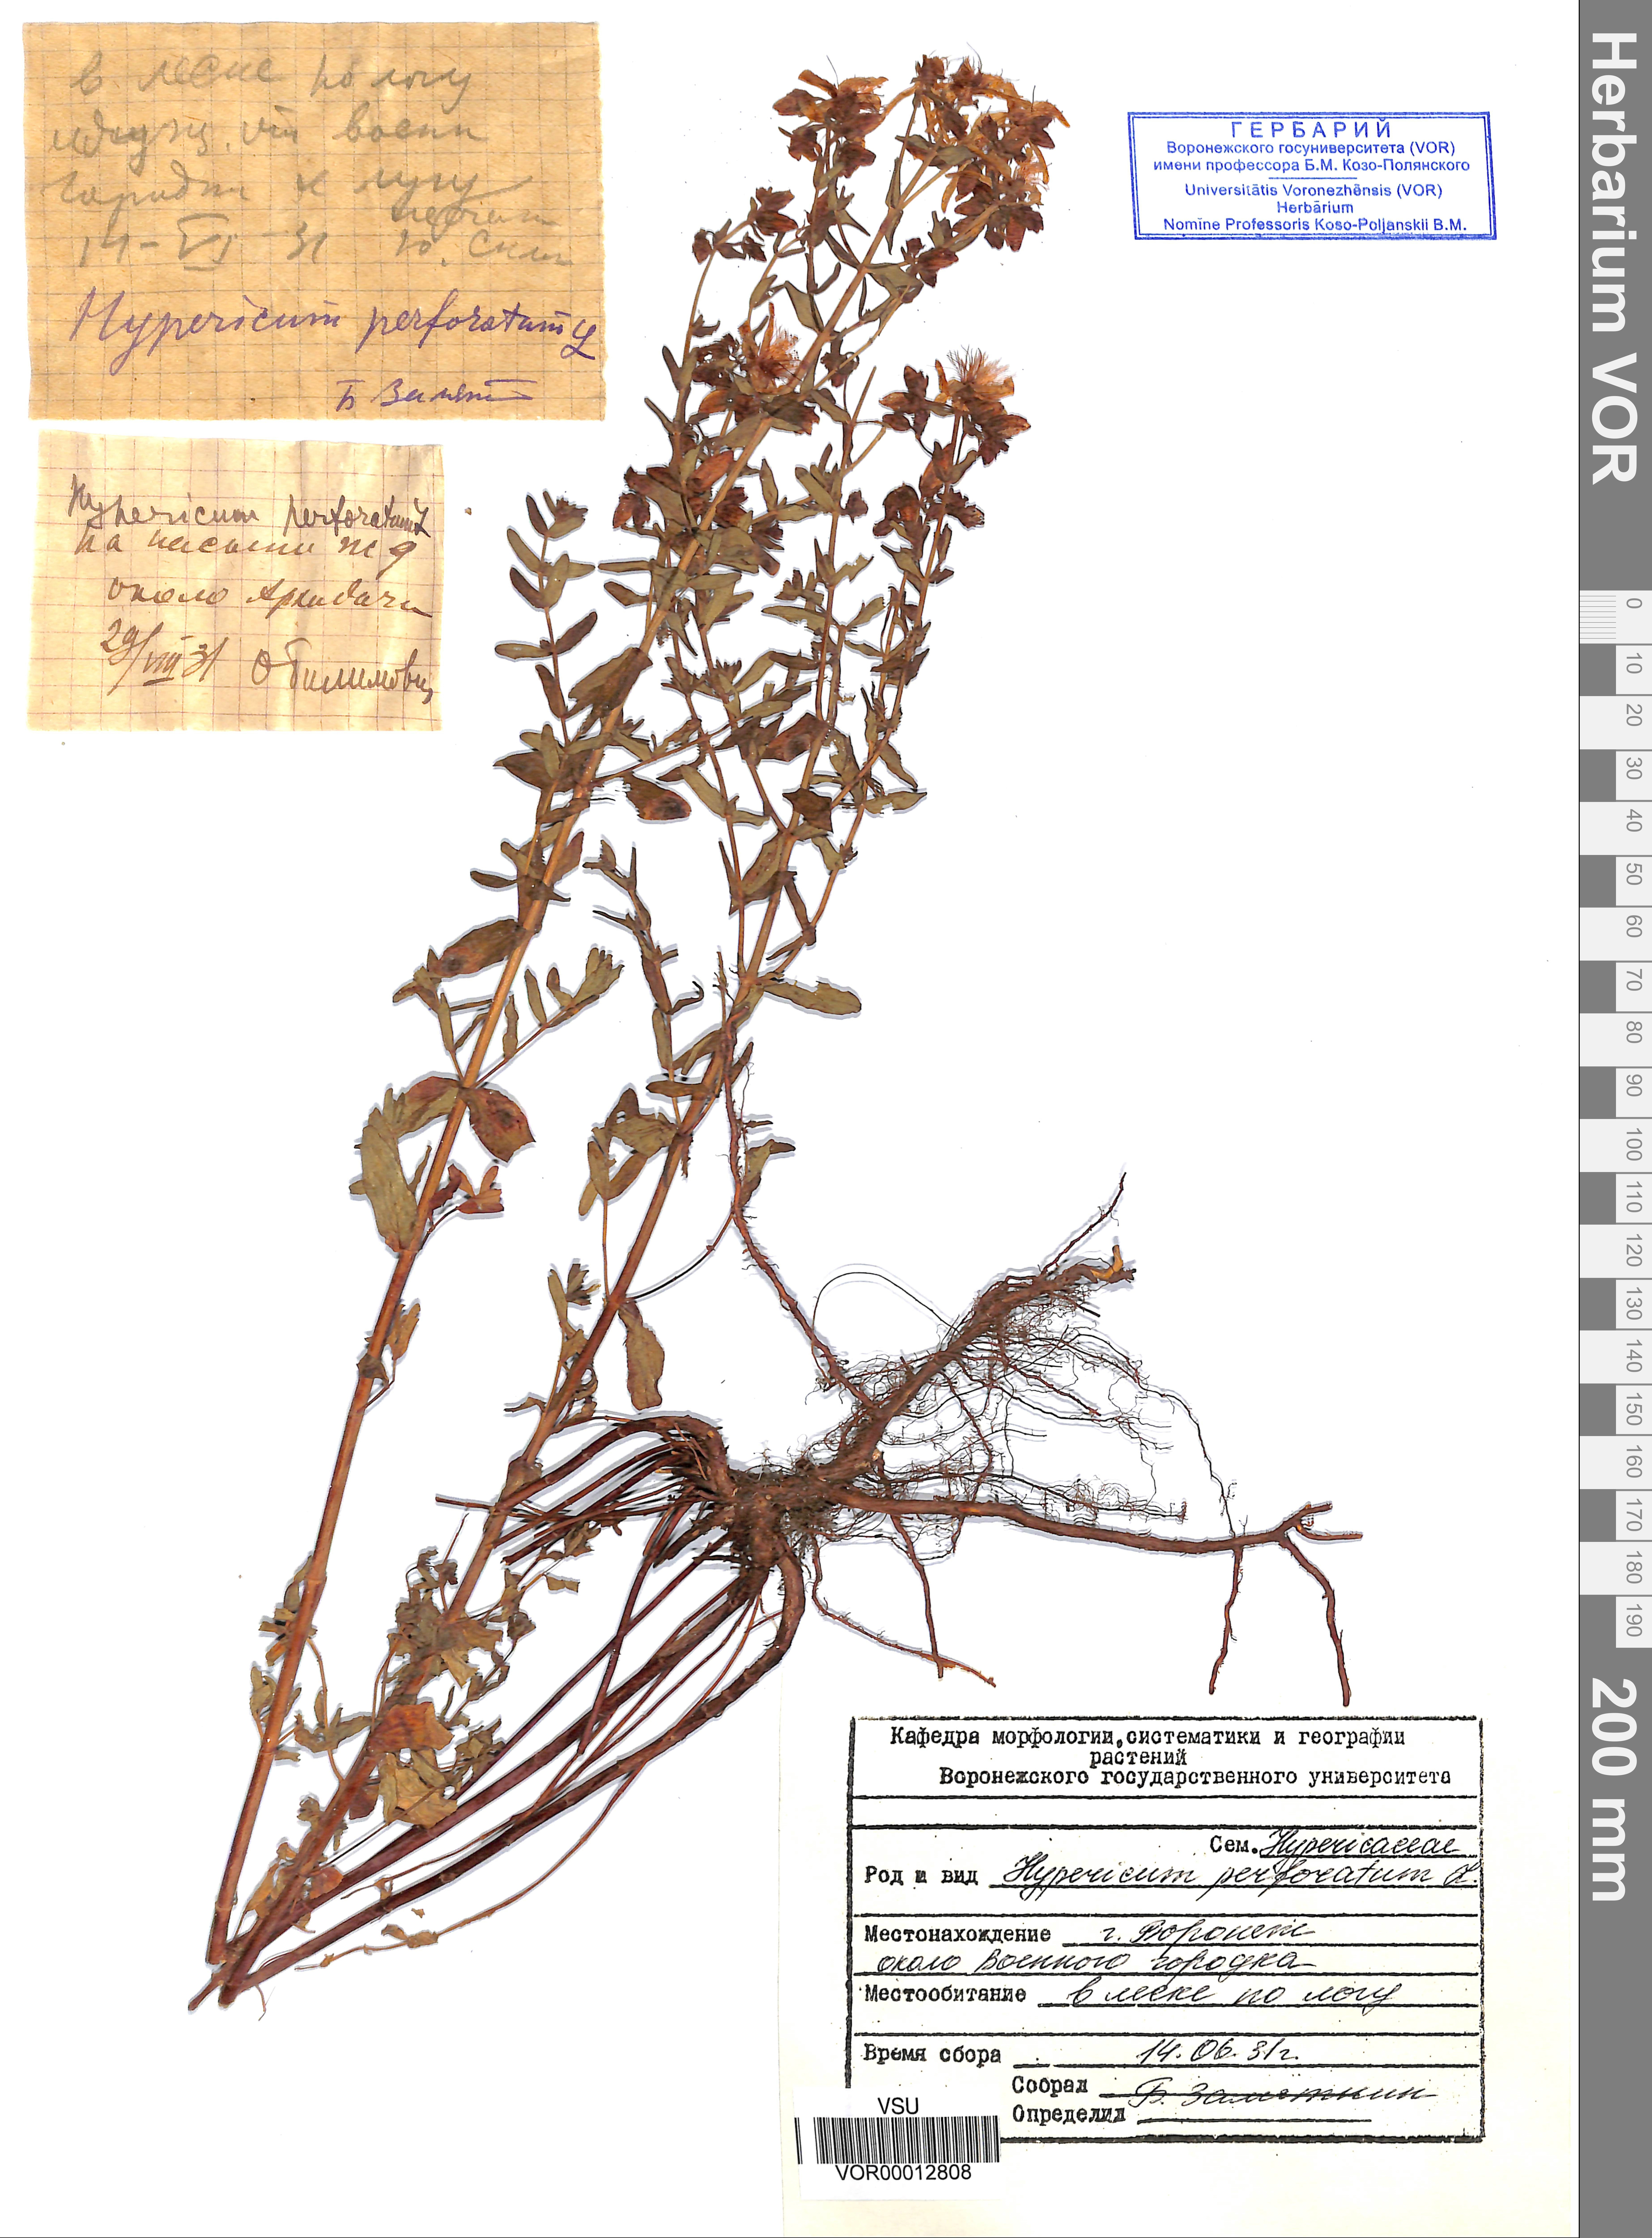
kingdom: Plantae
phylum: Tracheophyta
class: Magnoliopsida
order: Malpighiales
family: Hypericaceae
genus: Hypericum
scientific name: Hypericum perforatum
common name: Common st. johnswort
